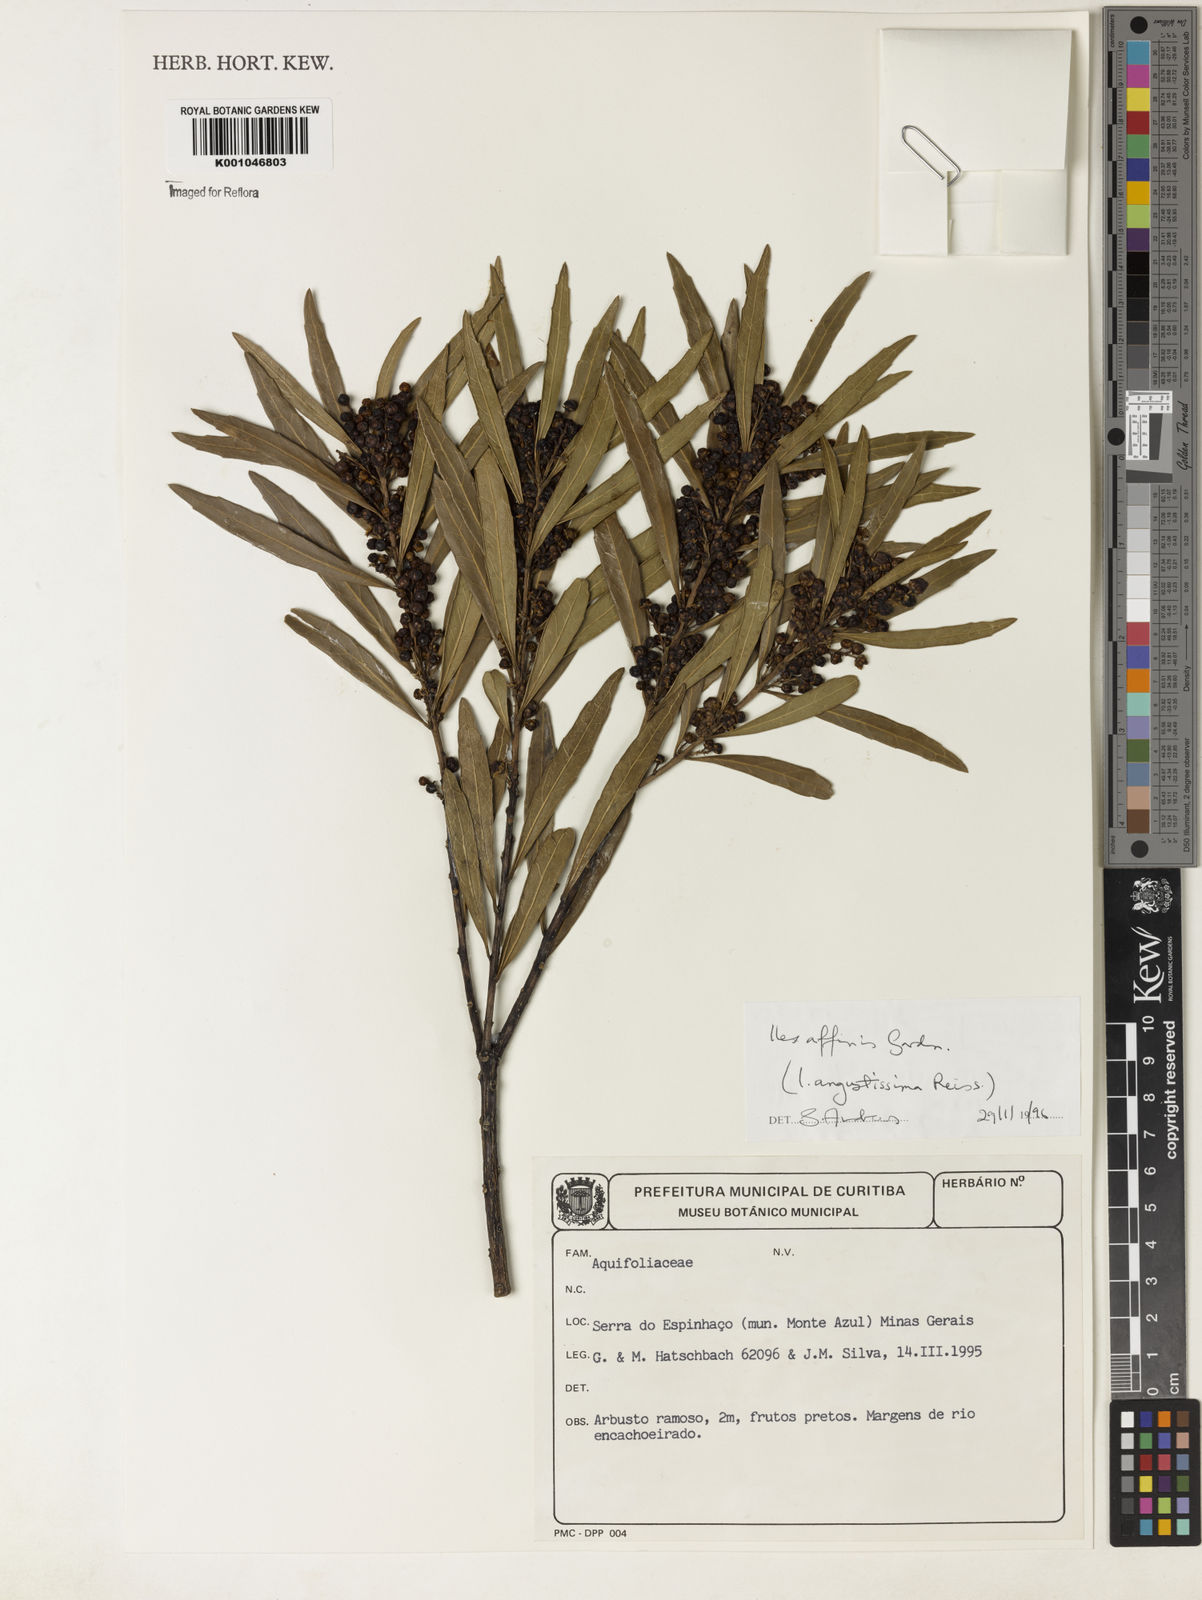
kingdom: Plantae
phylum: Tracheophyta
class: Magnoliopsida
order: Aquifoliales
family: Aquifoliaceae
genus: Ilex
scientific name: Ilex angustissima
